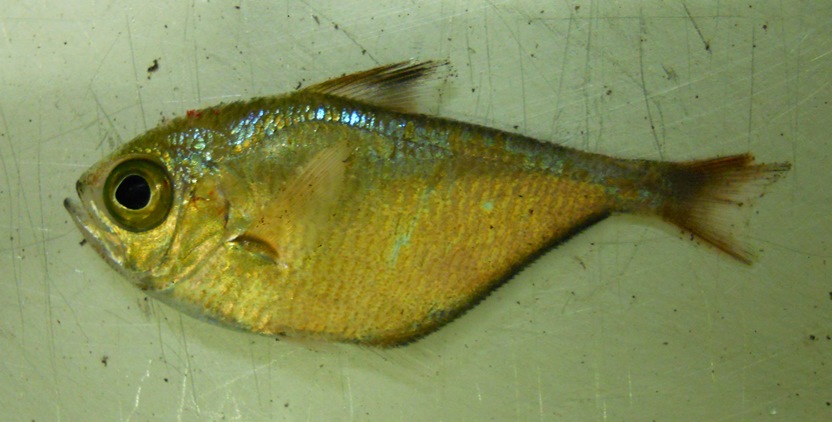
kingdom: Animalia
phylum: Chordata
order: Perciformes
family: Pempheridae
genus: Pempheris
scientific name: Pempheris connelli
